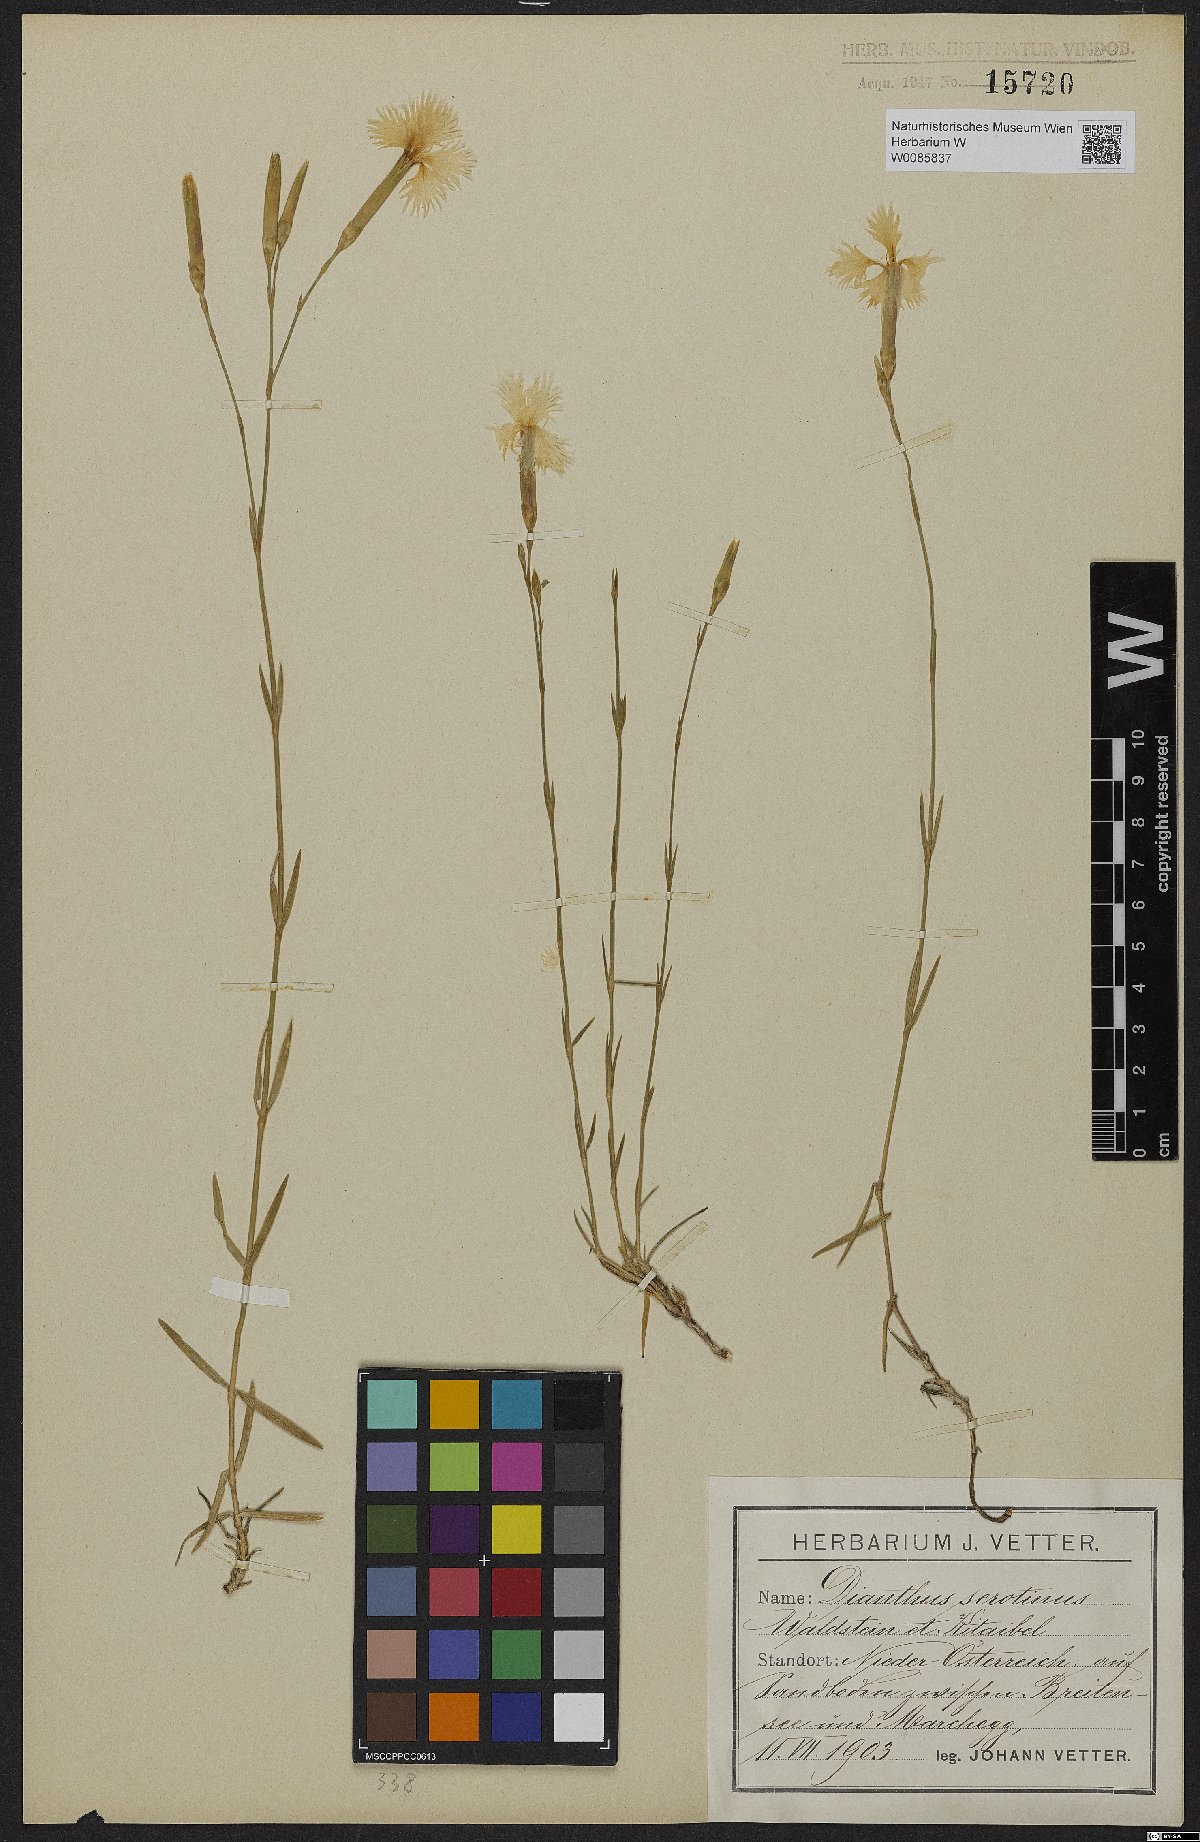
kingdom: Plantae
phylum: Tracheophyta
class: Magnoliopsida
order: Caryophyllales
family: Caryophyllaceae
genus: Dianthus
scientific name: Dianthus serotinus
